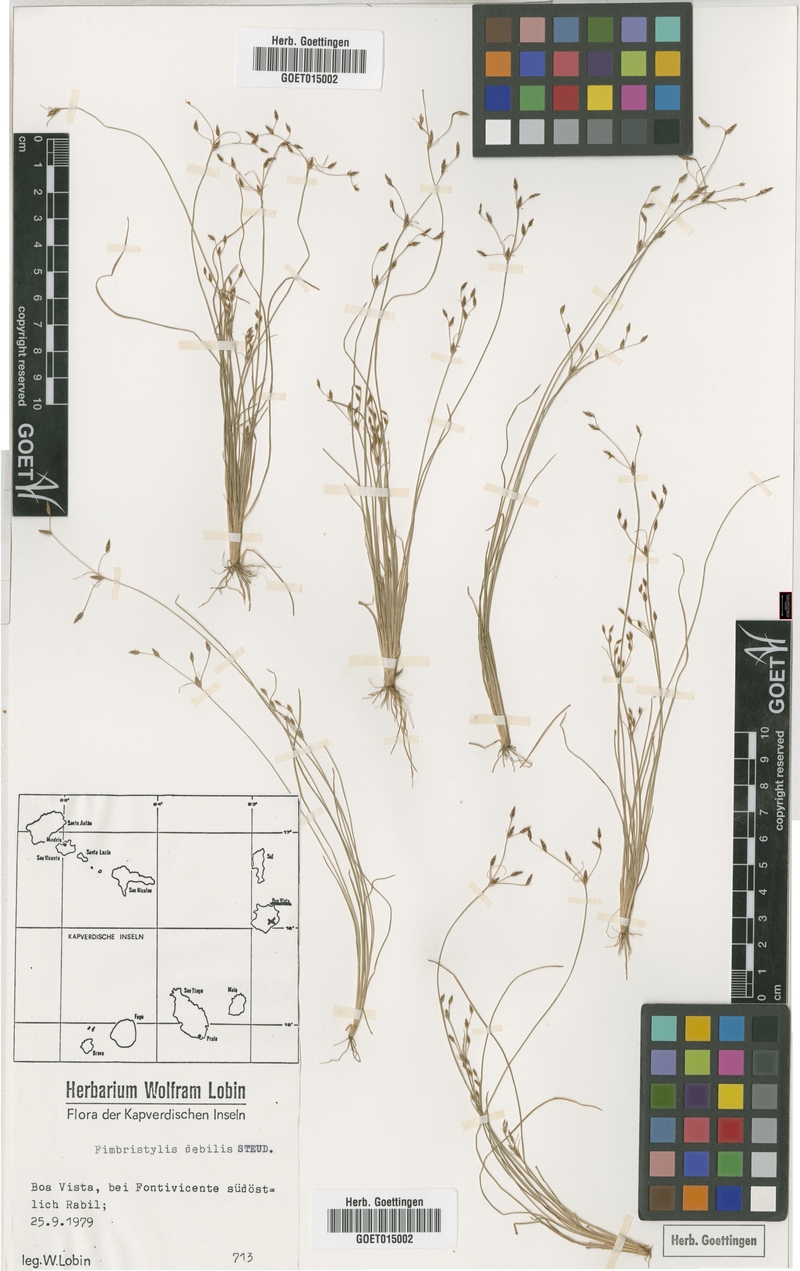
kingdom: Plantae
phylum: Tracheophyta
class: Liliopsida
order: Poales
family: Cyperaceae
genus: Fimbristylis
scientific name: Fimbristylis debilis
